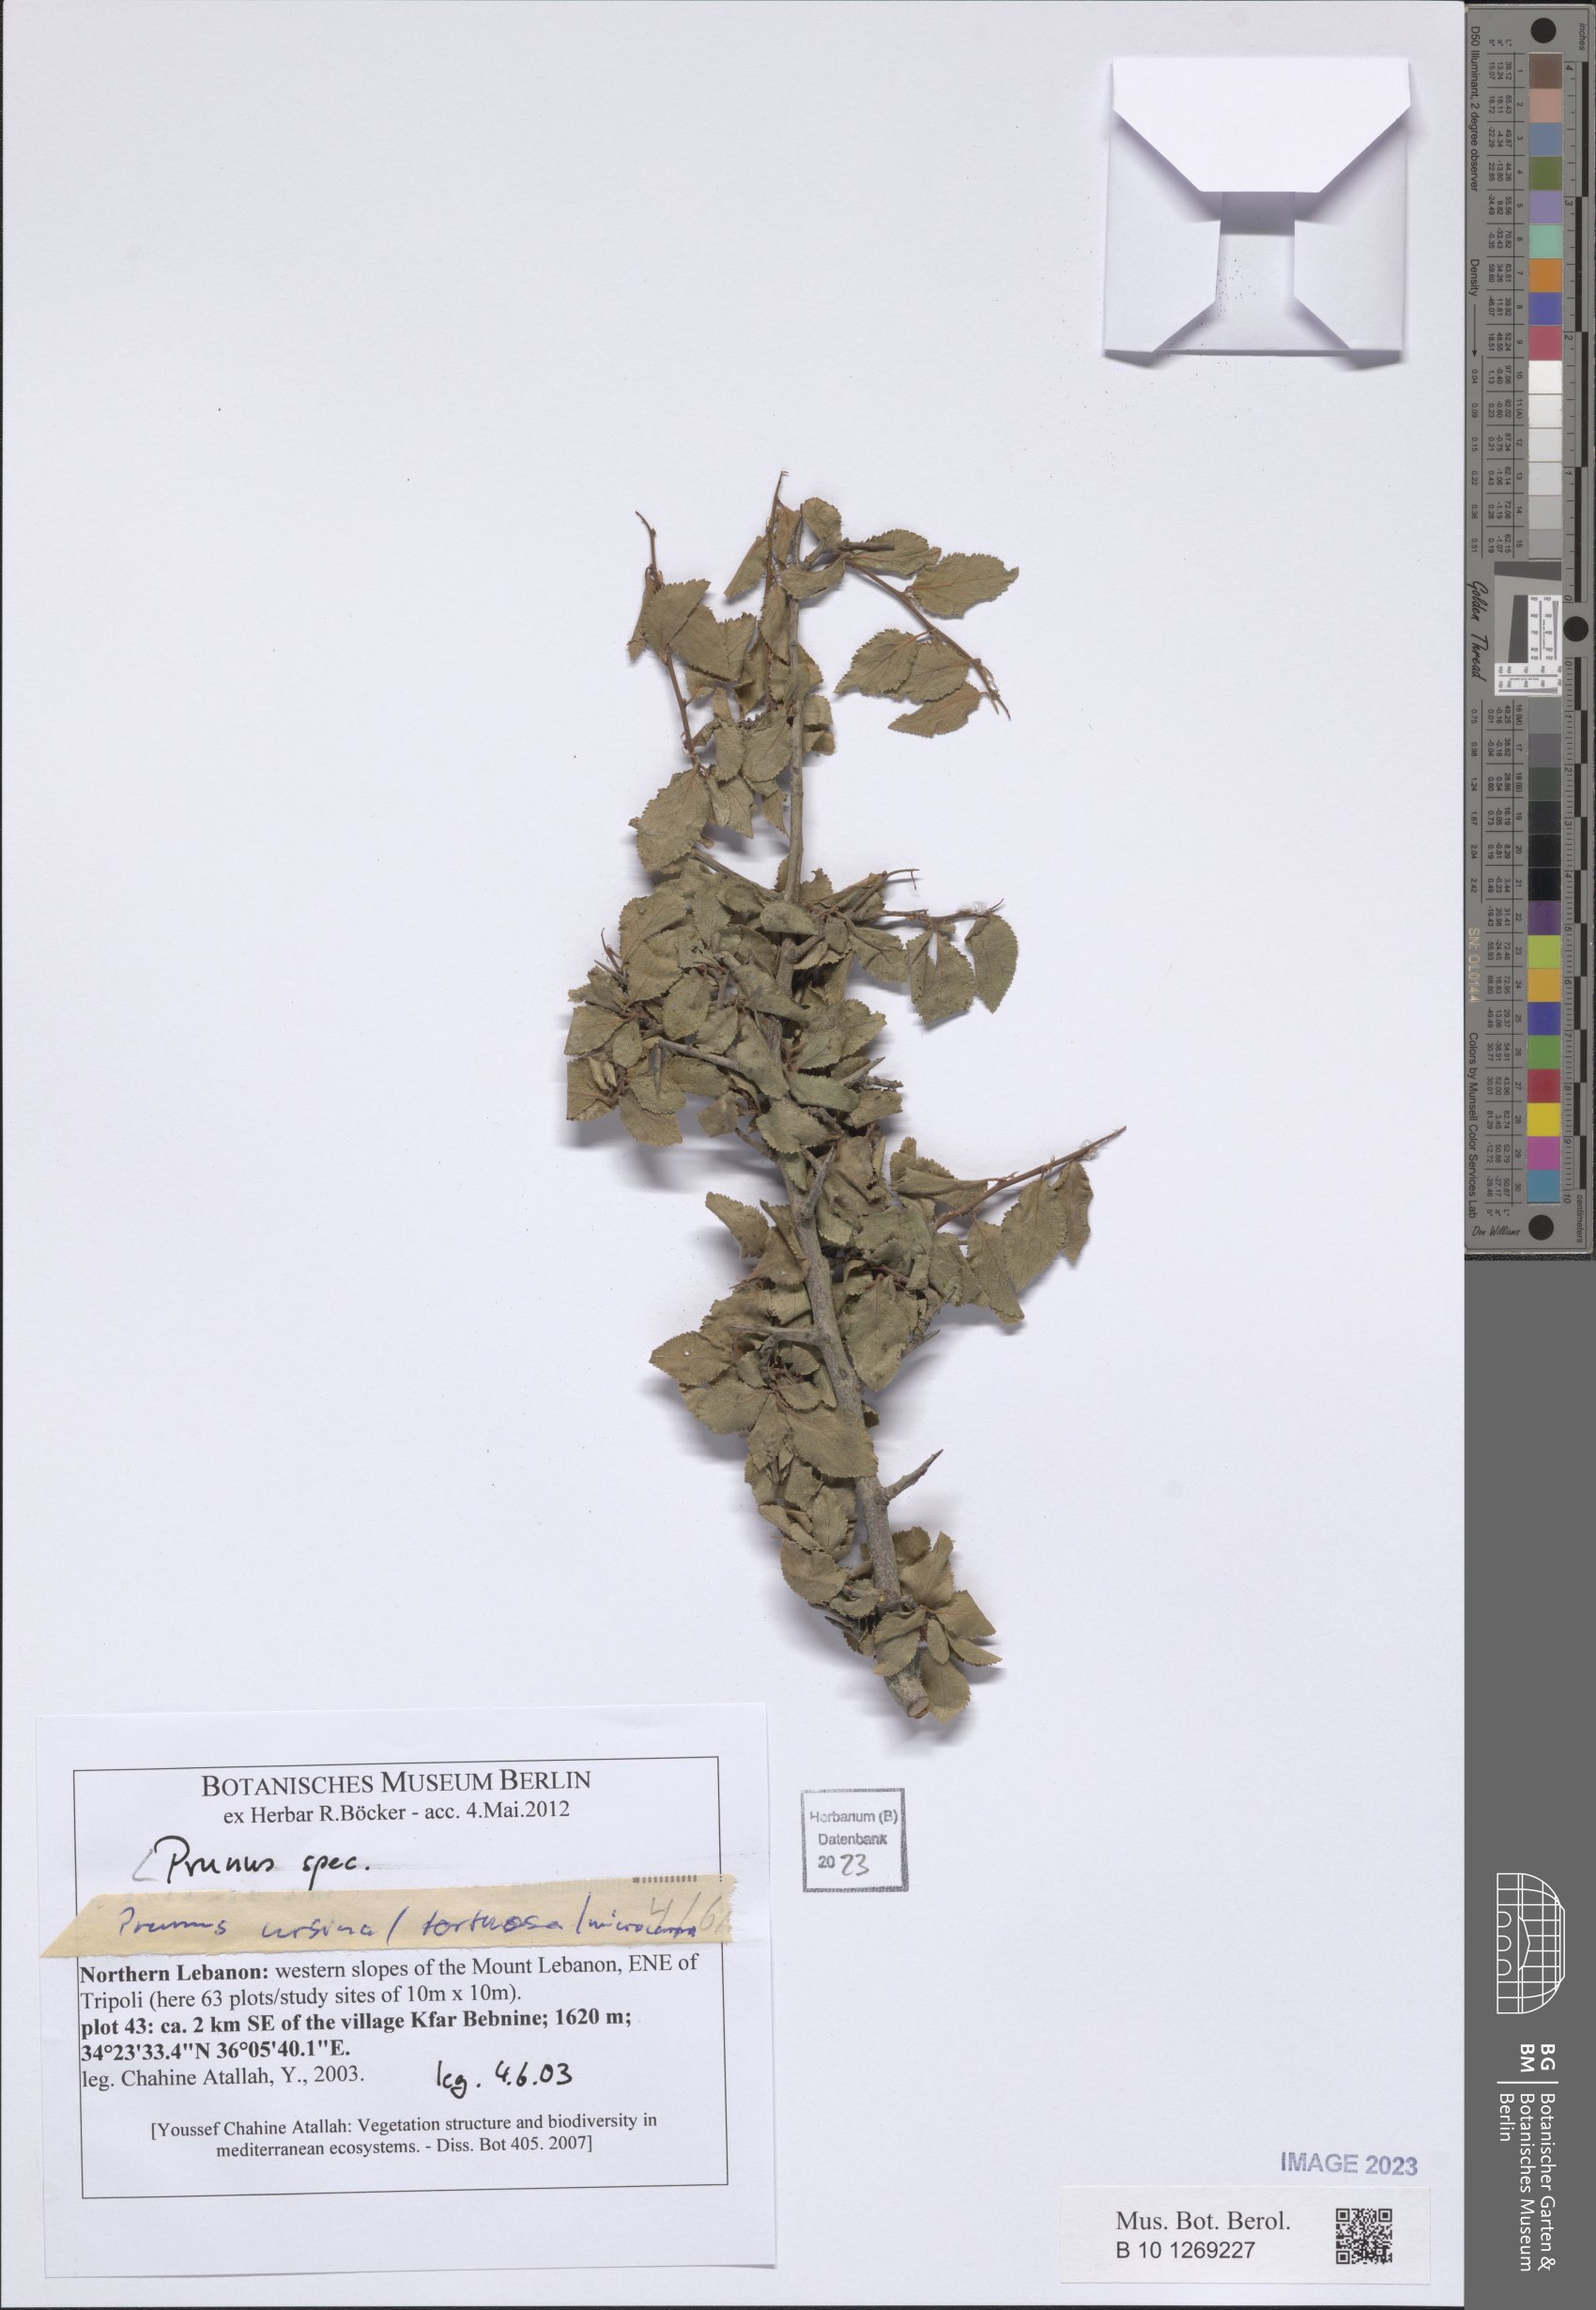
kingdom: Plantae
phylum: Tracheophyta
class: Magnoliopsida
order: Rosales
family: Rosaceae
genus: Prunus
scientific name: Prunus
